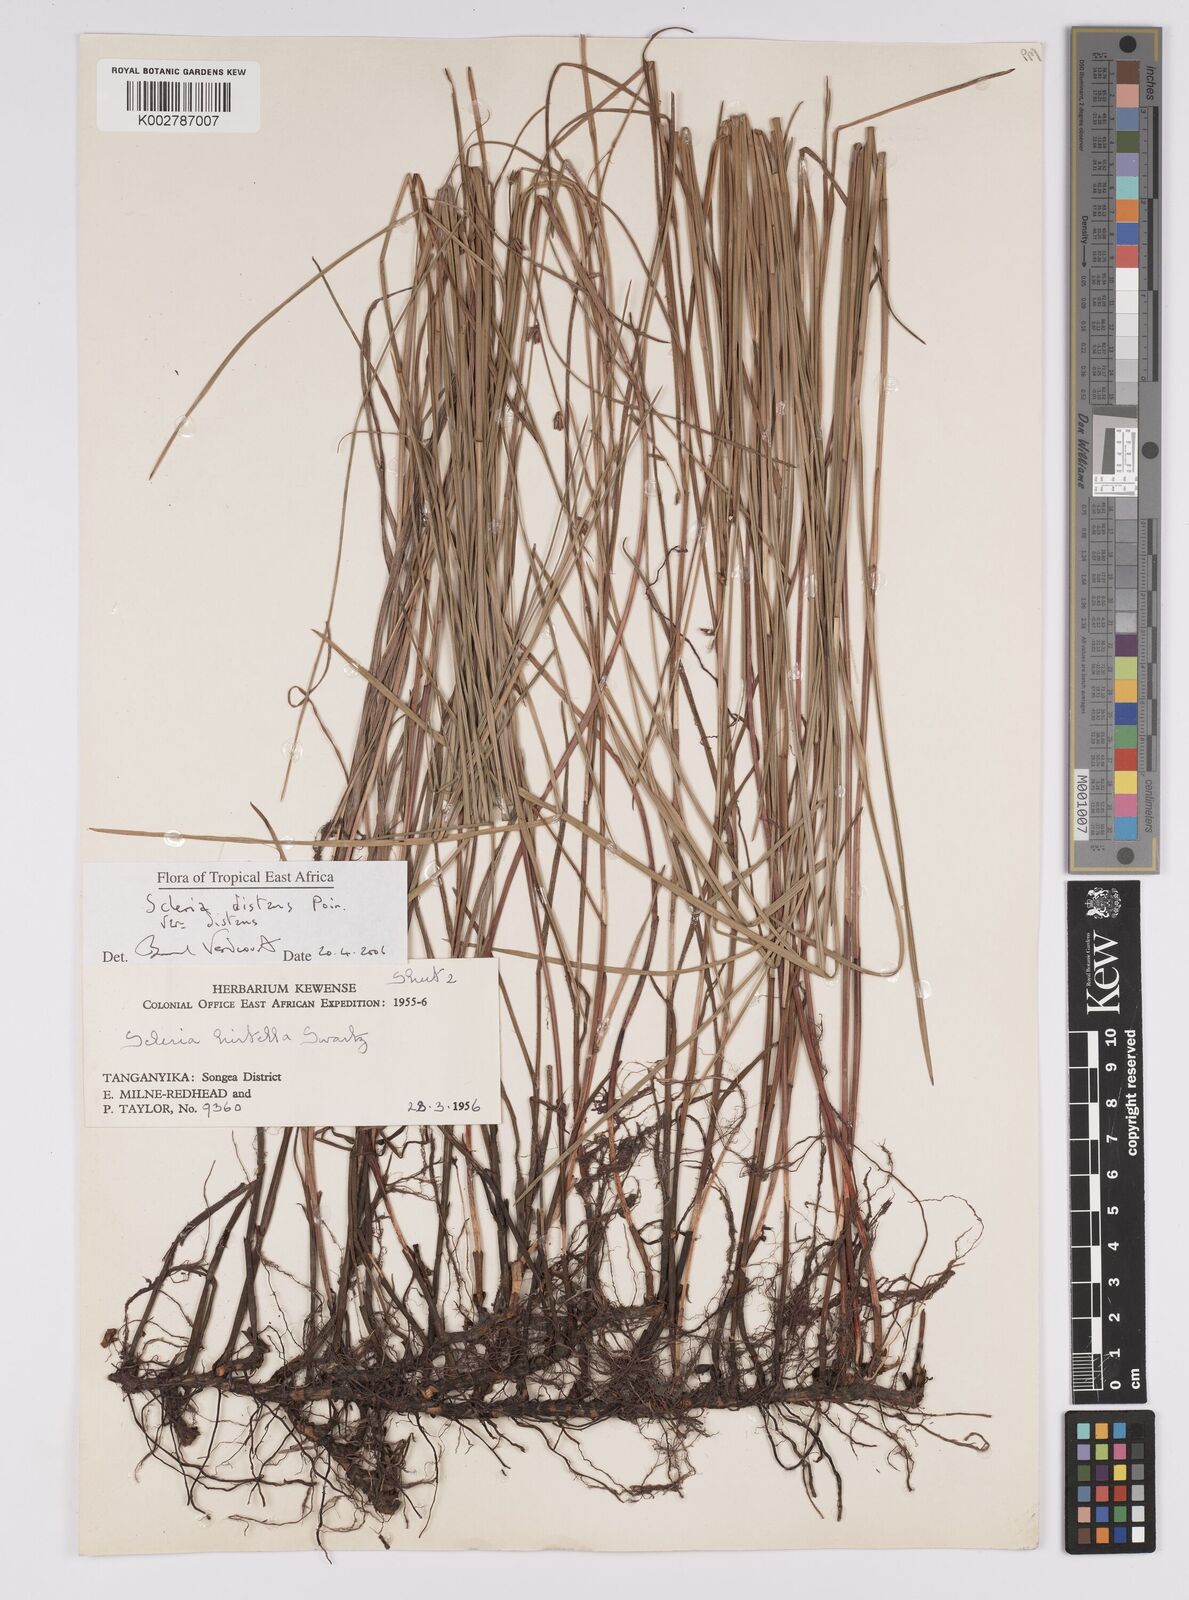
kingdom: Plantae
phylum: Tracheophyta
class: Liliopsida
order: Poales
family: Cyperaceae
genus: Scleria
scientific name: Scleria distans
